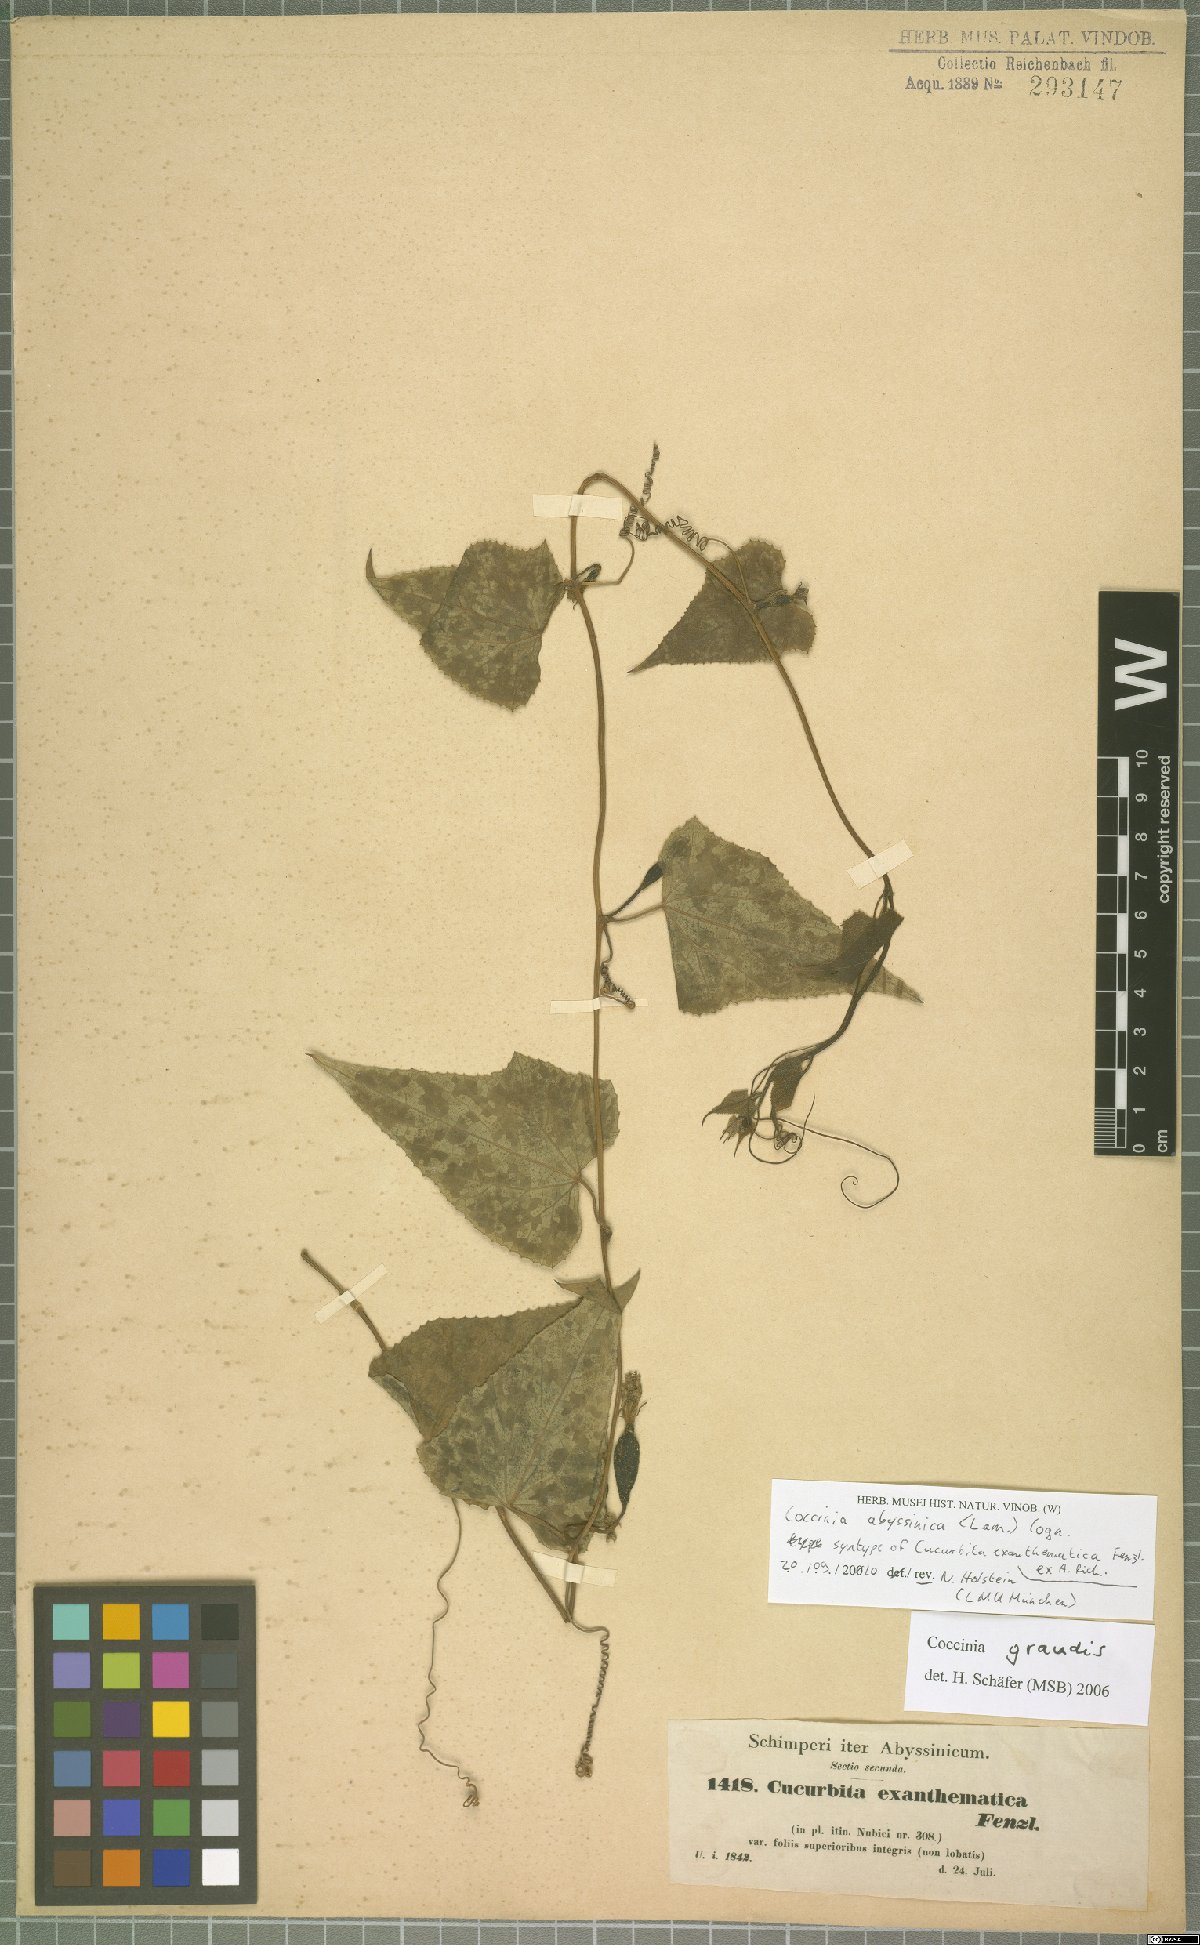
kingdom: Plantae
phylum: Tracheophyta
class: Magnoliopsida
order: Cucurbitales
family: Cucurbitaceae
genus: Coccinia
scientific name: Coccinia abyssinica
